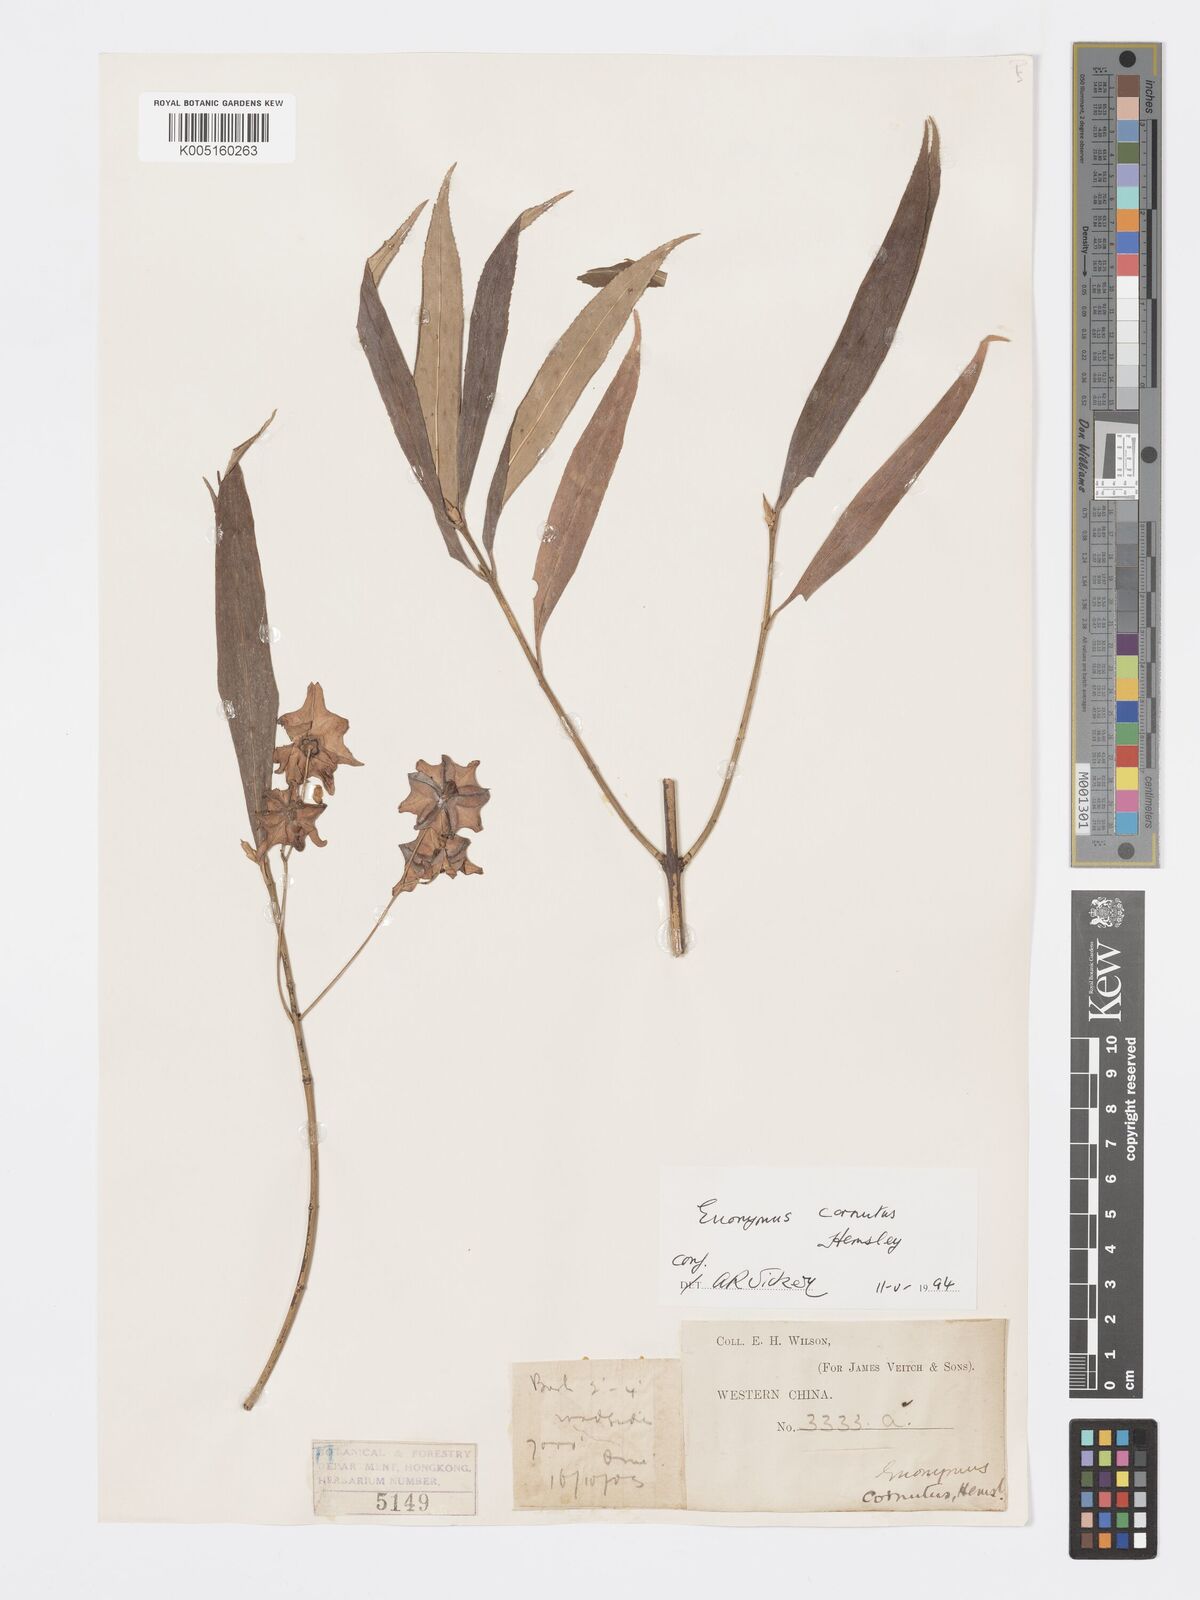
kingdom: Plantae
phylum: Tracheophyta
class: Magnoliopsida
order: Celastrales
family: Celastraceae
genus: Euonymus
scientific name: Euonymus cornutus
